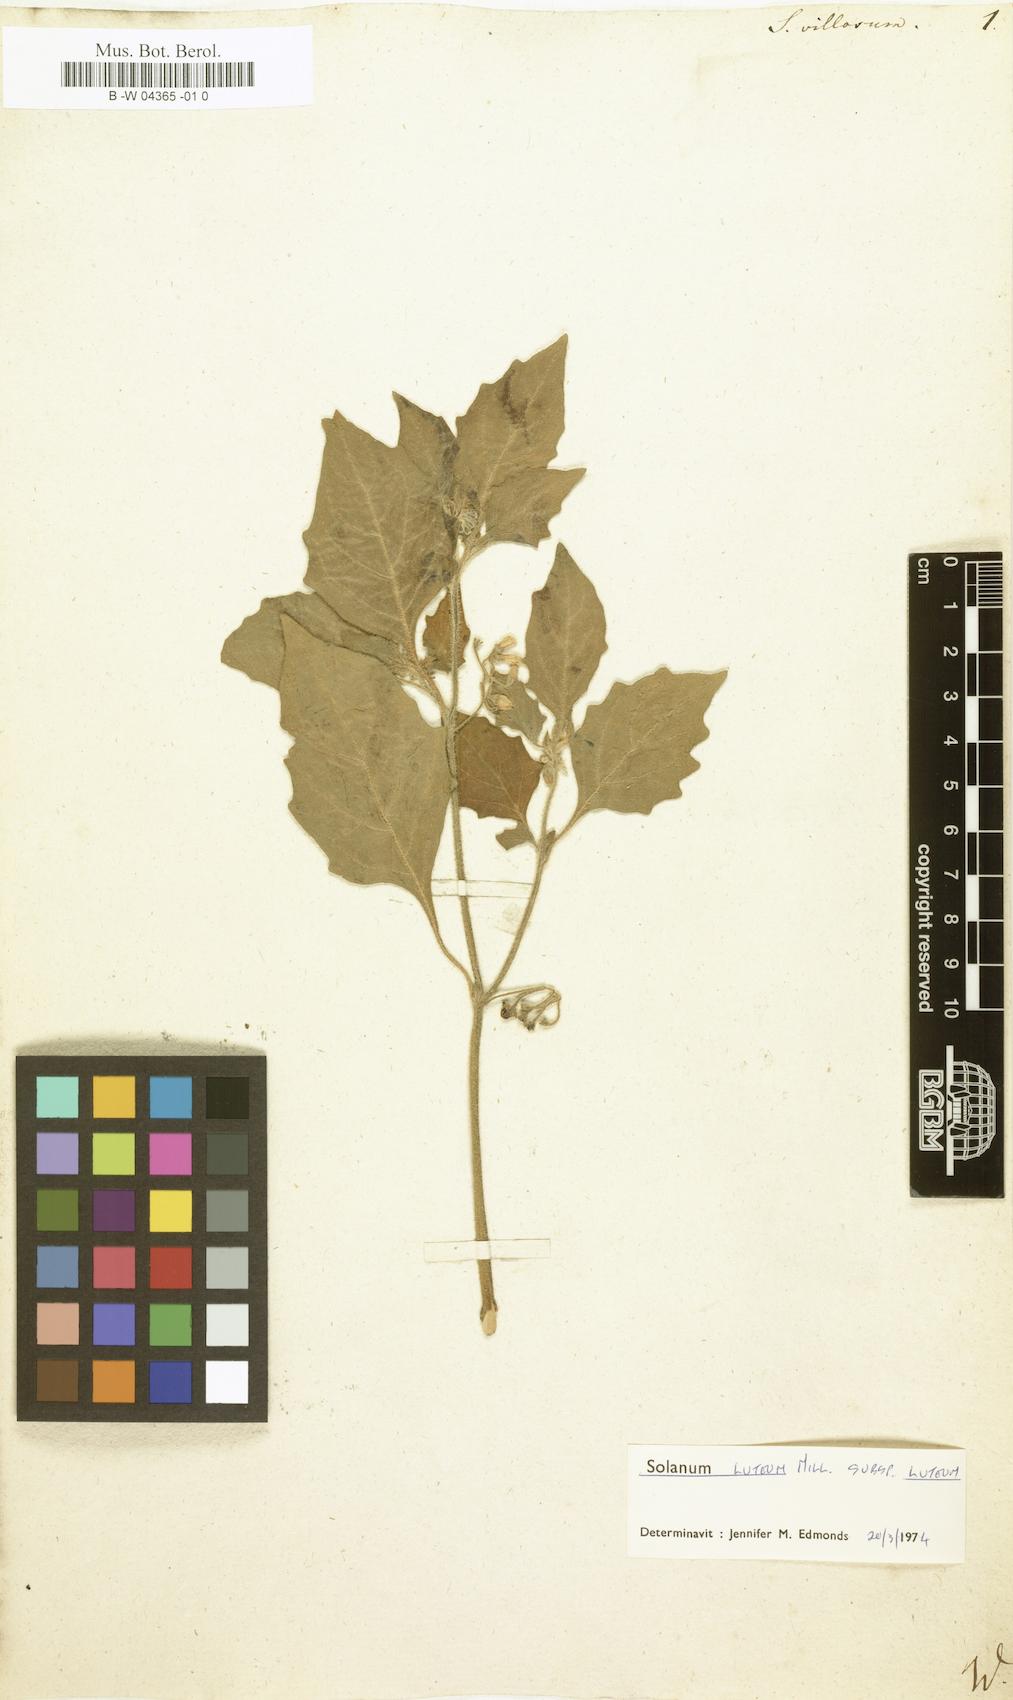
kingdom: Plantae
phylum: Tracheophyta
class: Magnoliopsida
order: Solanales
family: Solanaceae
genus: Solanum
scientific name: Solanum villosum
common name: Red nightshade
